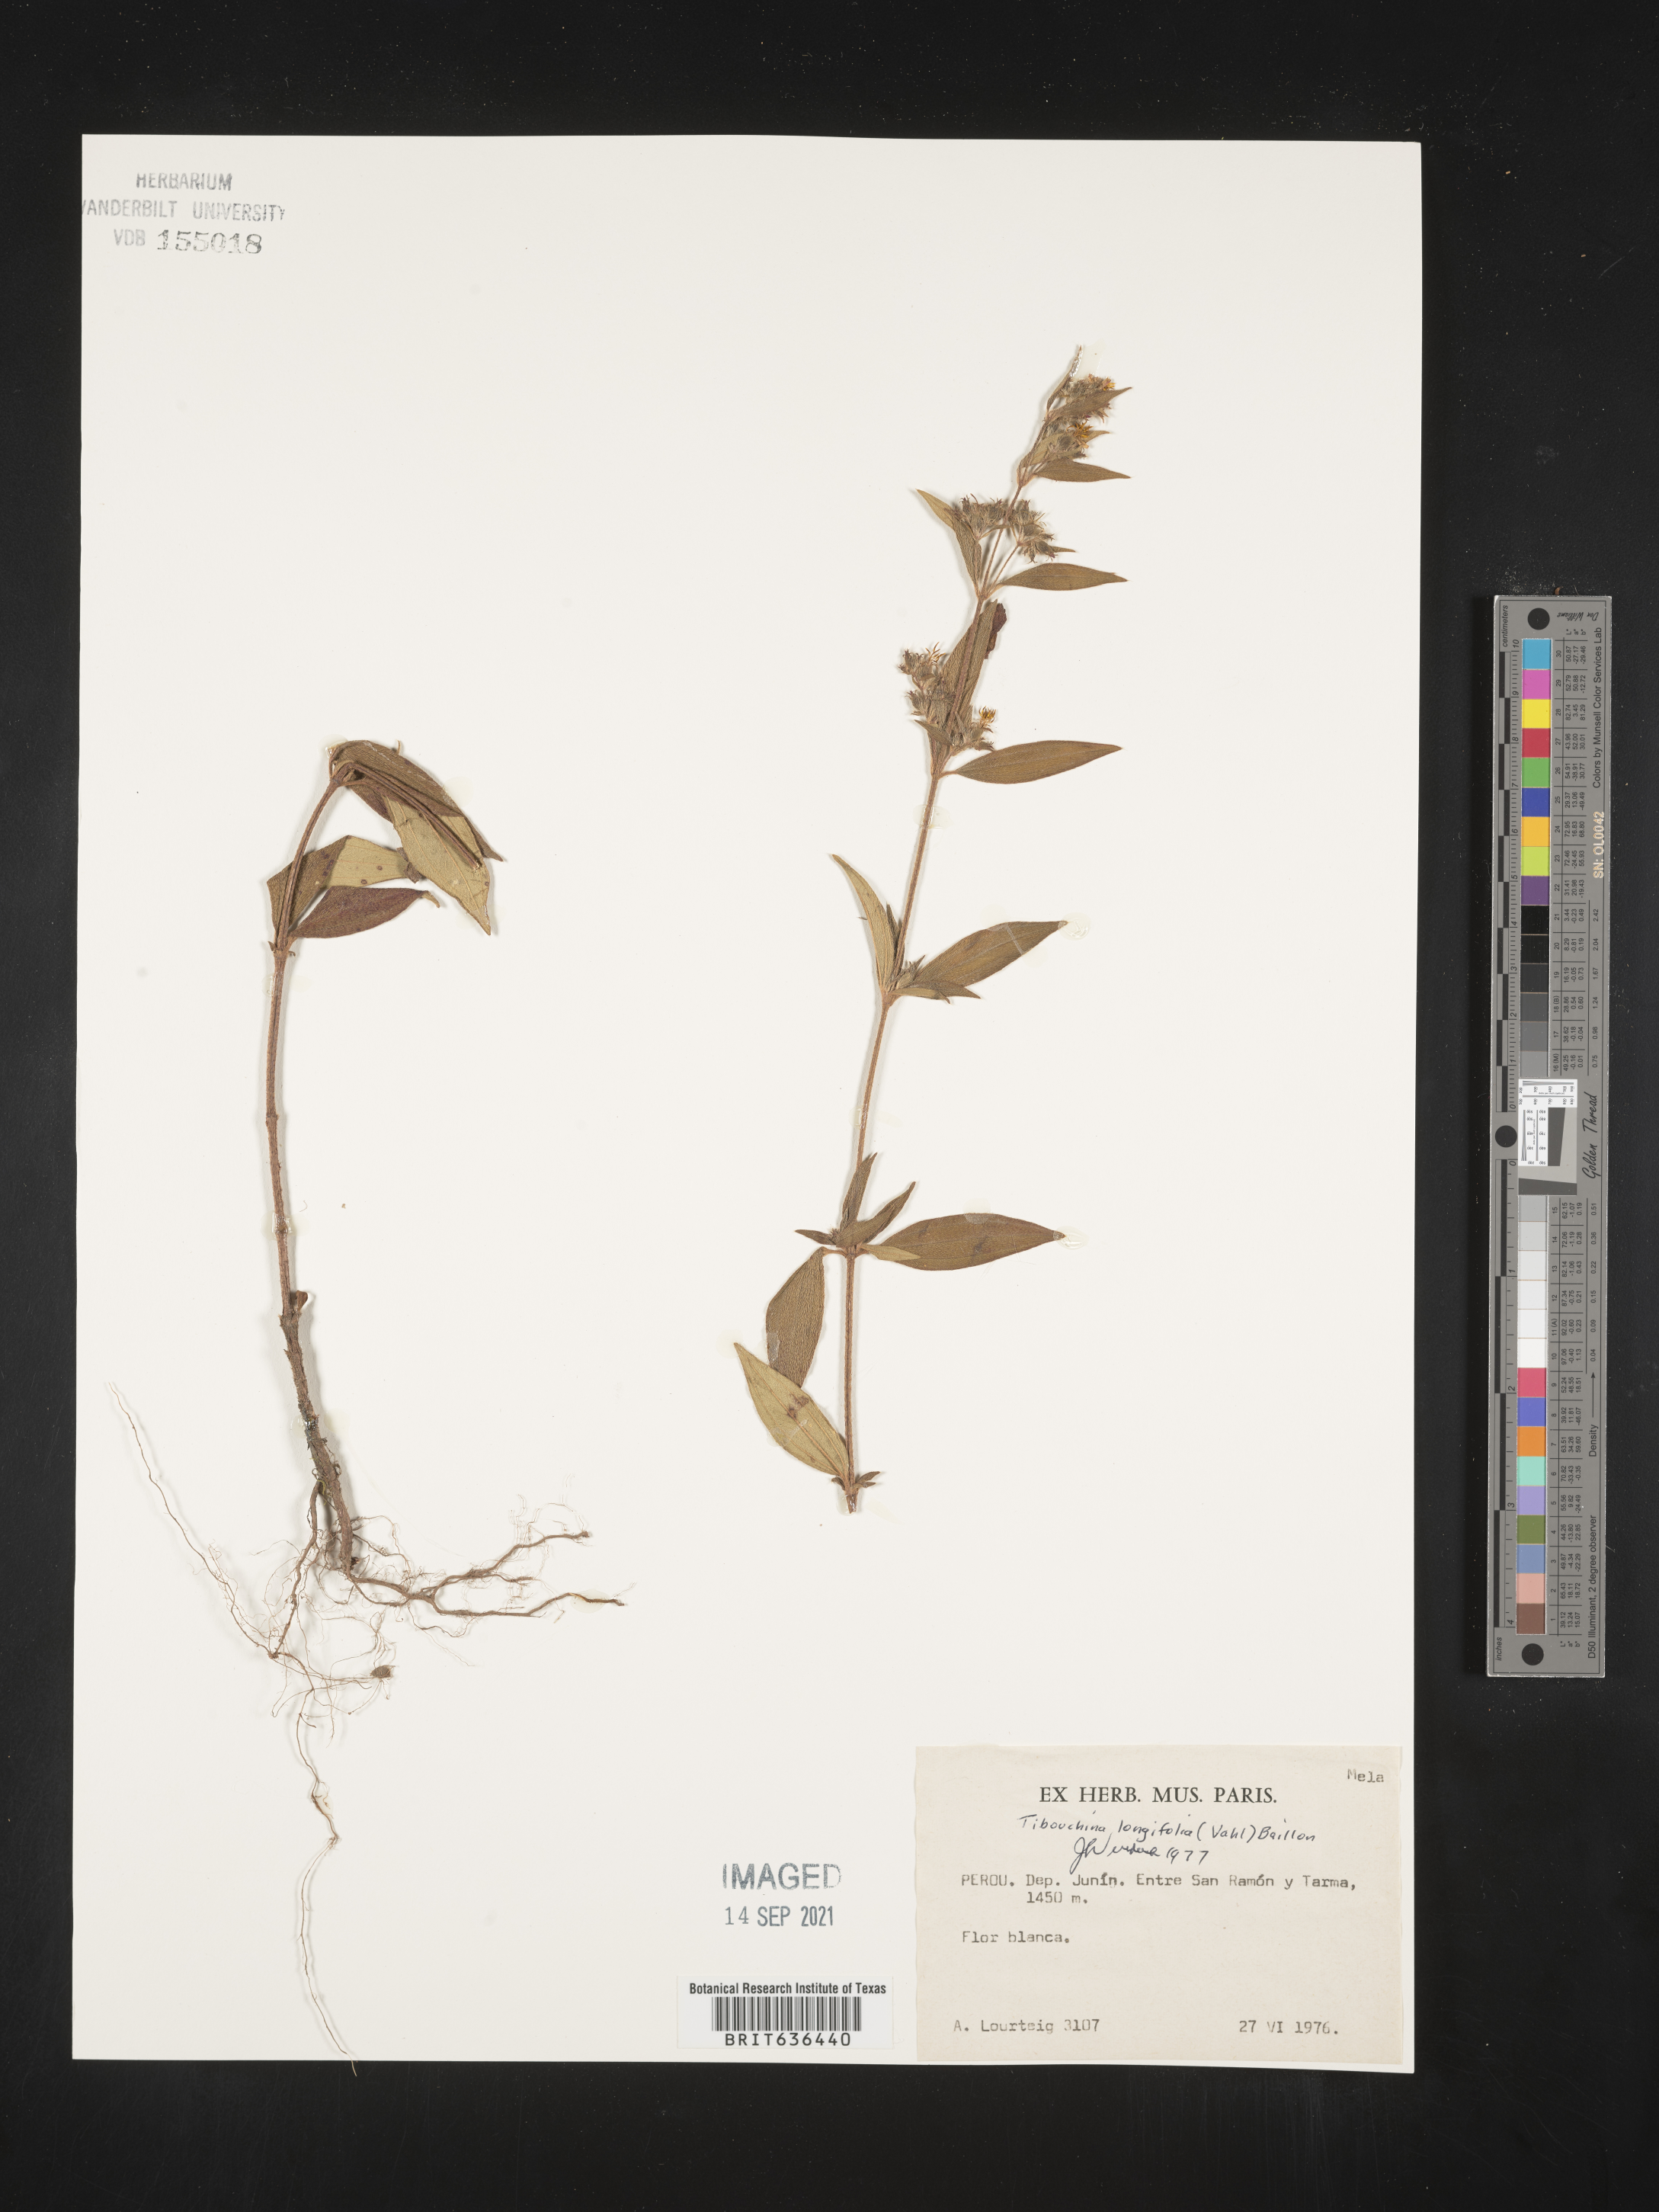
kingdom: Plantae
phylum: Tracheophyta
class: Magnoliopsida
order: Myrtales
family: Melastomataceae
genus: Tibouchina
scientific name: Tibouchina
